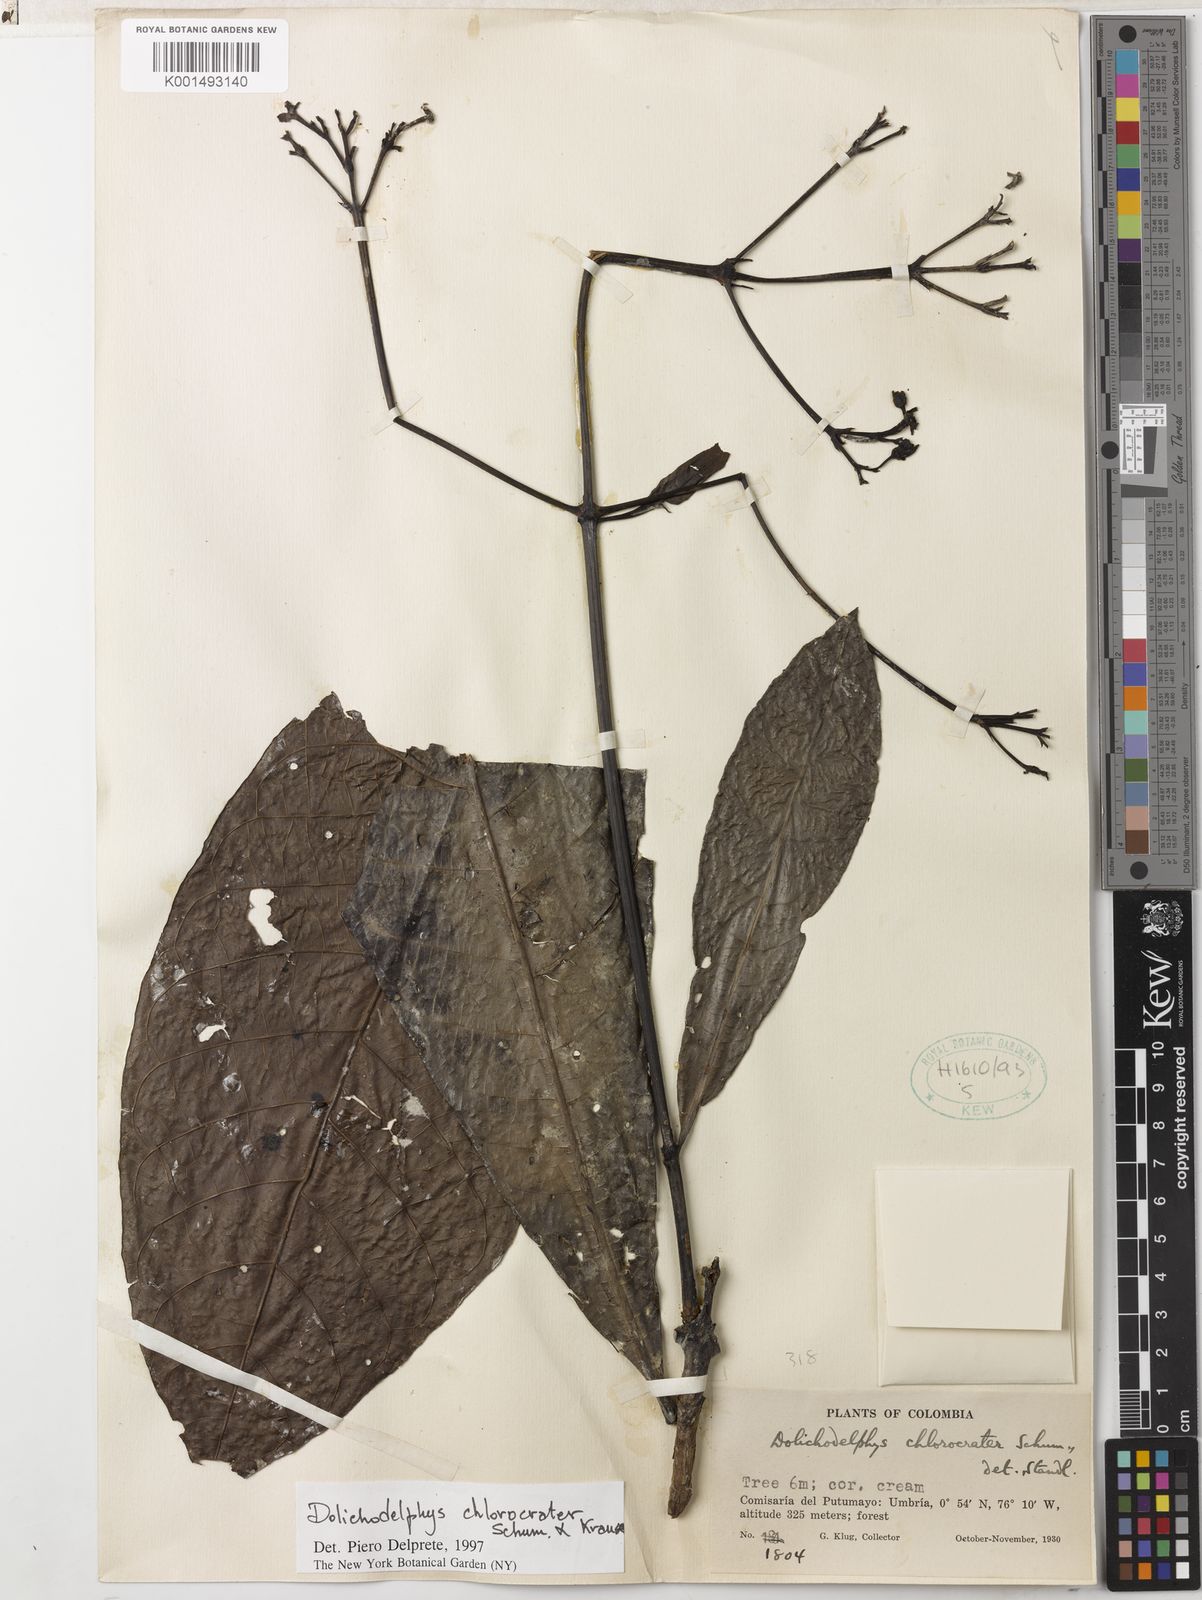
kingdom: Plantae
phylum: Tracheophyta
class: Magnoliopsida
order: Gentianales
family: Rubiaceae
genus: Dolichodelphys
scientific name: Dolichodelphys chlorocrater
